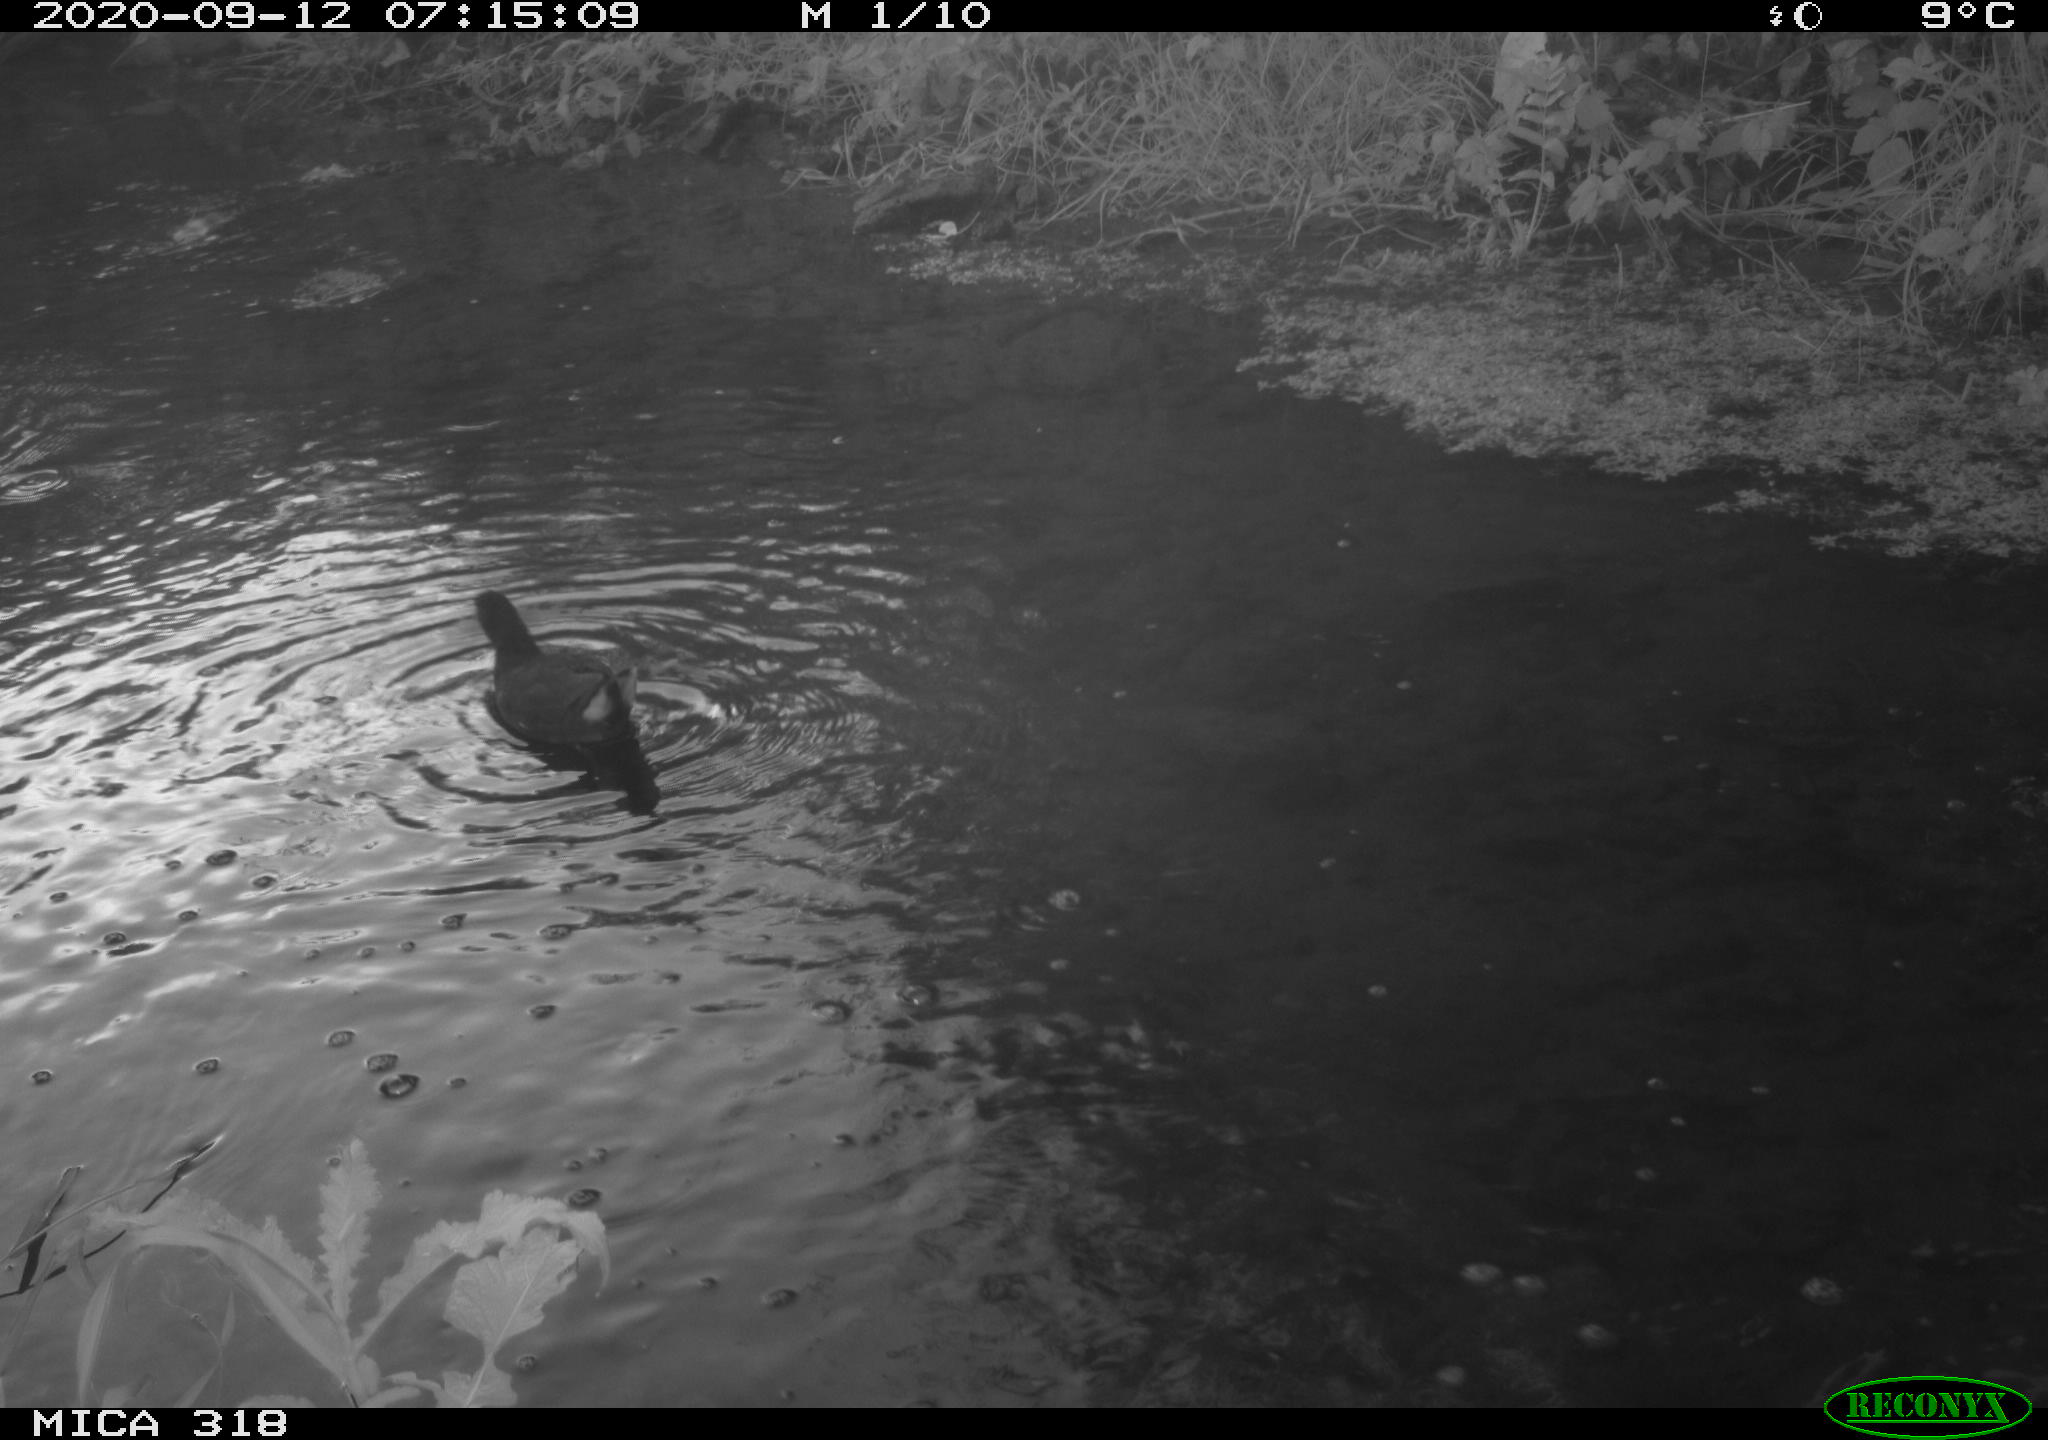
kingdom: Animalia
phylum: Chordata
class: Aves
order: Gruiformes
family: Rallidae
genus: Gallinula
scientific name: Gallinula chloropus
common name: Common moorhen
